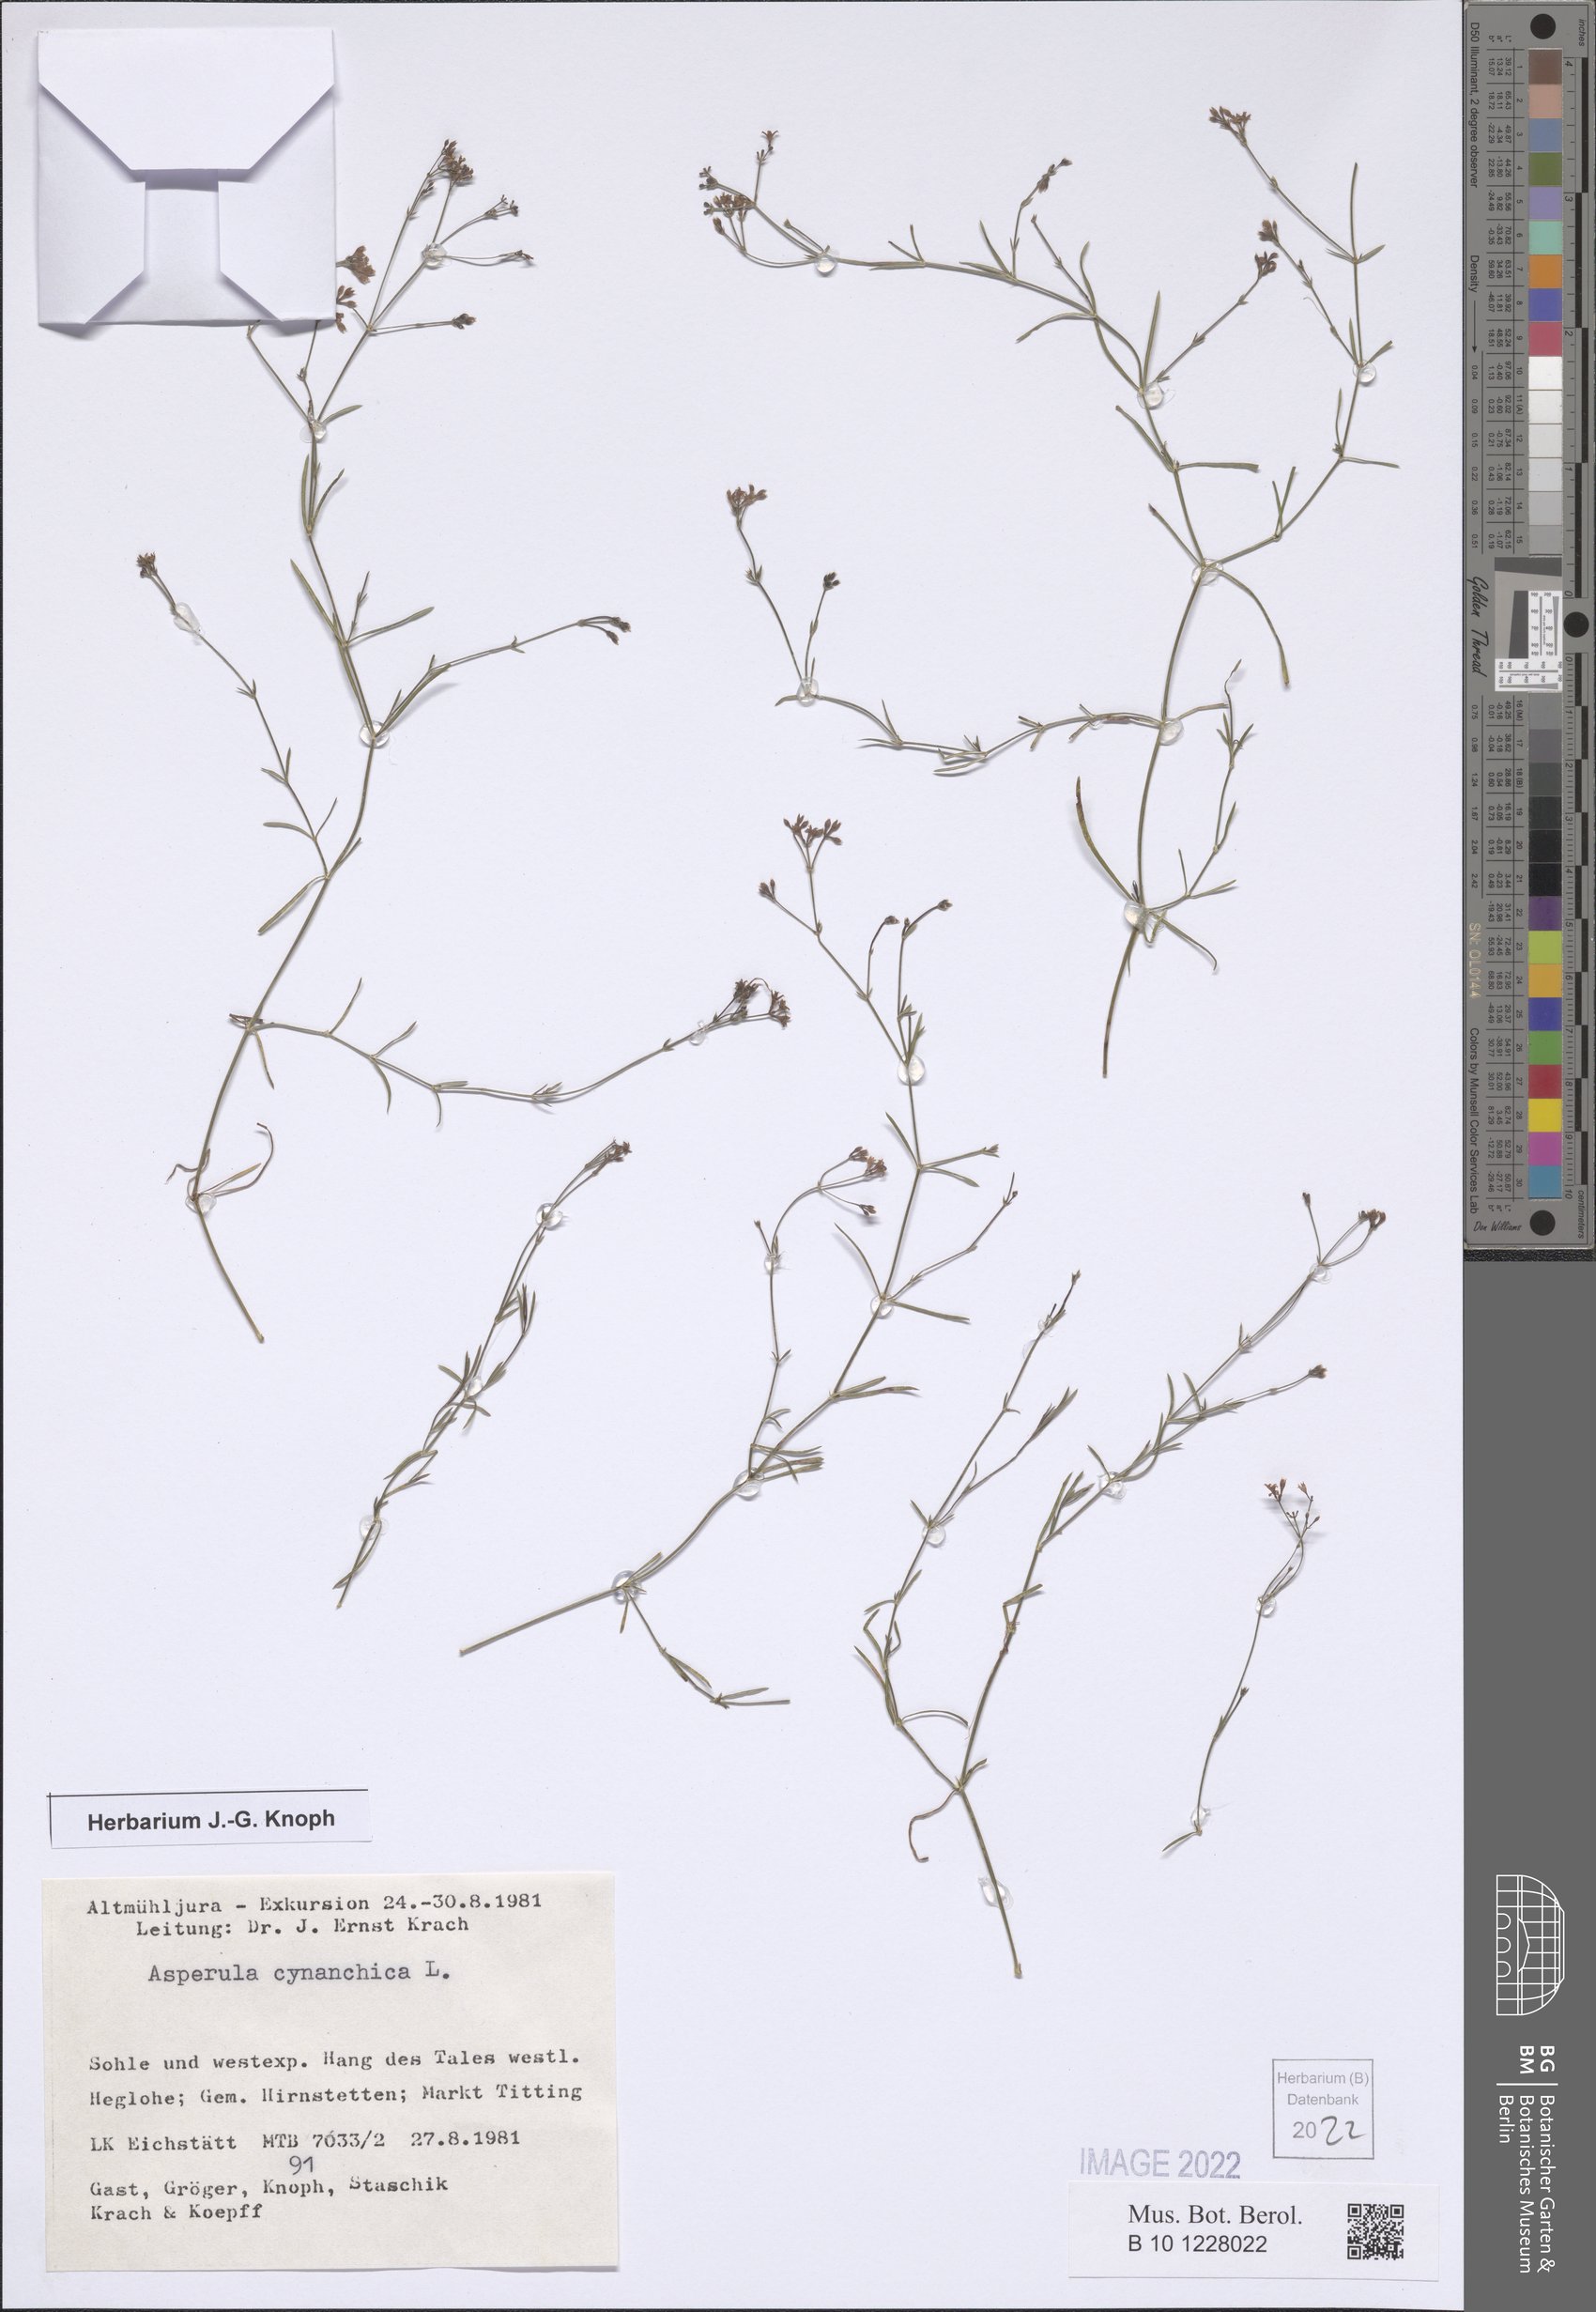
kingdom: Plantae
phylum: Tracheophyta
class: Magnoliopsida
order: Gentianales
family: Rubiaceae
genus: Cynanchica
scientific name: Cynanchica pyrenaica
